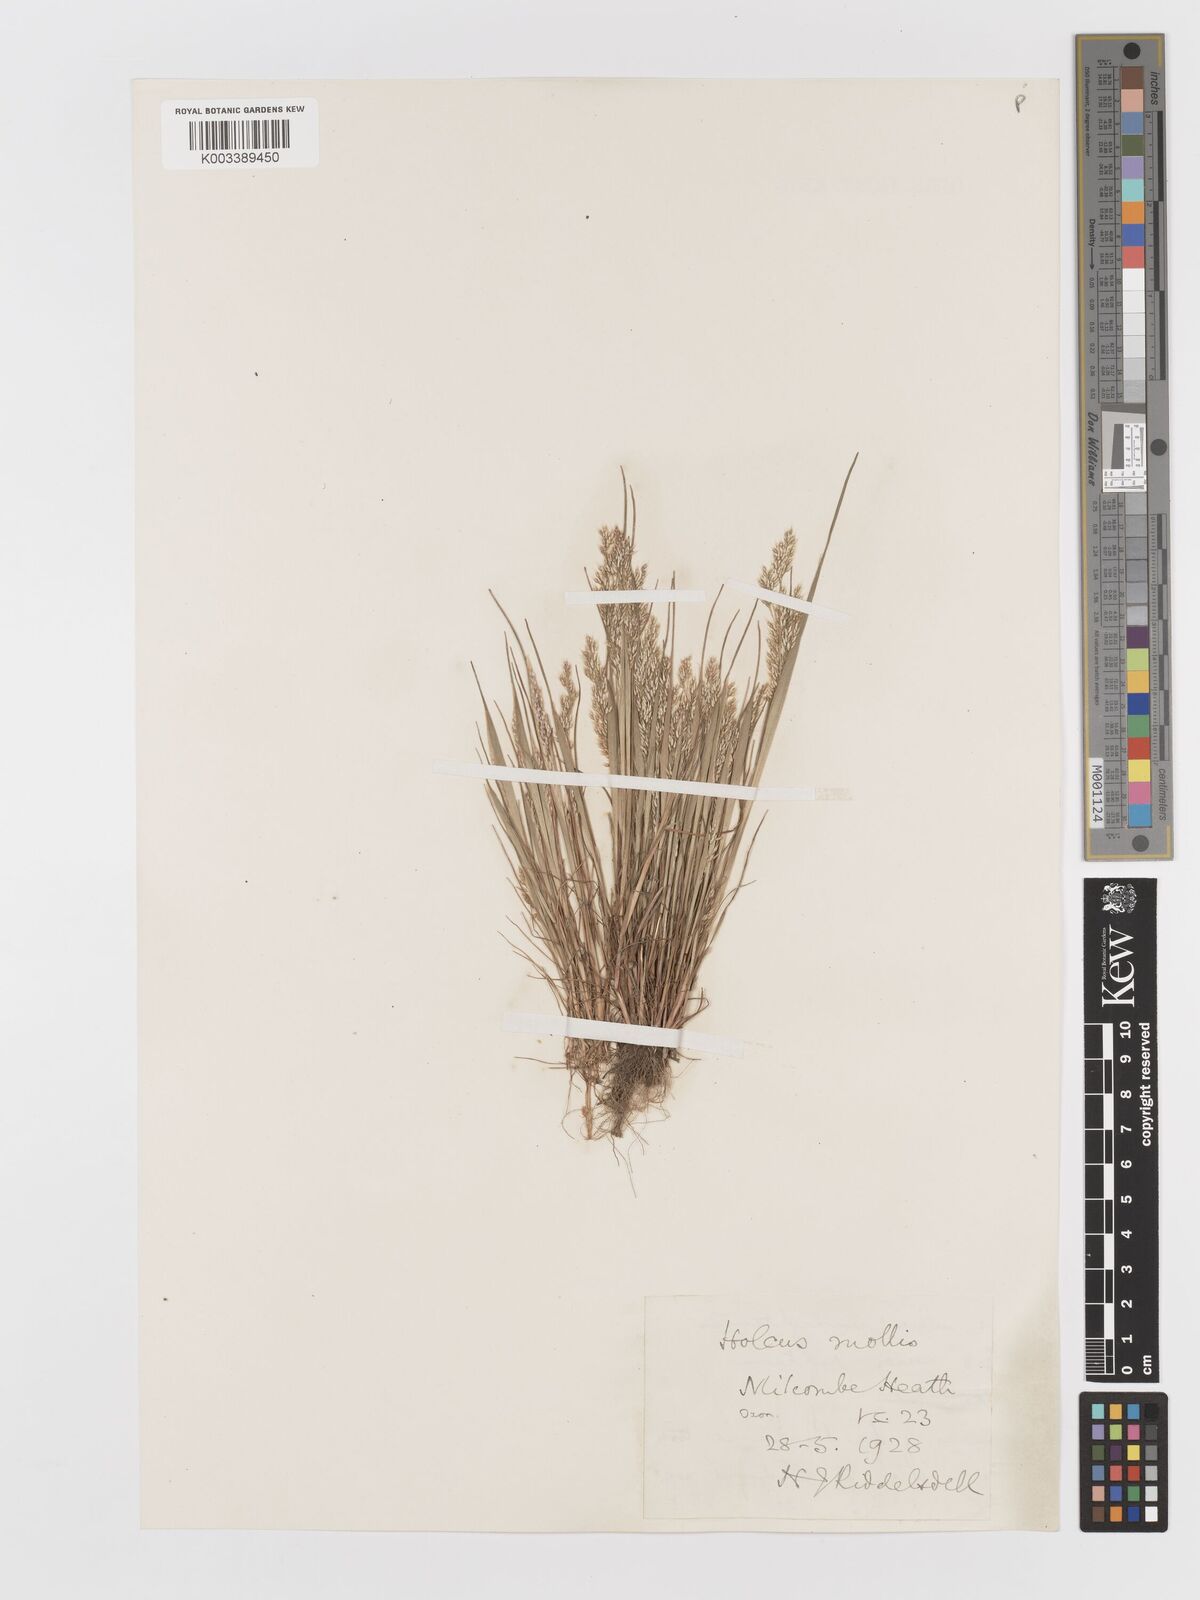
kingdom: Plantae
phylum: Tracheophyta
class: Liliopsida
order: Poales
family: Poaceae
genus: Aira
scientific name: Aira caryophyllea
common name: Silver hairgrass
